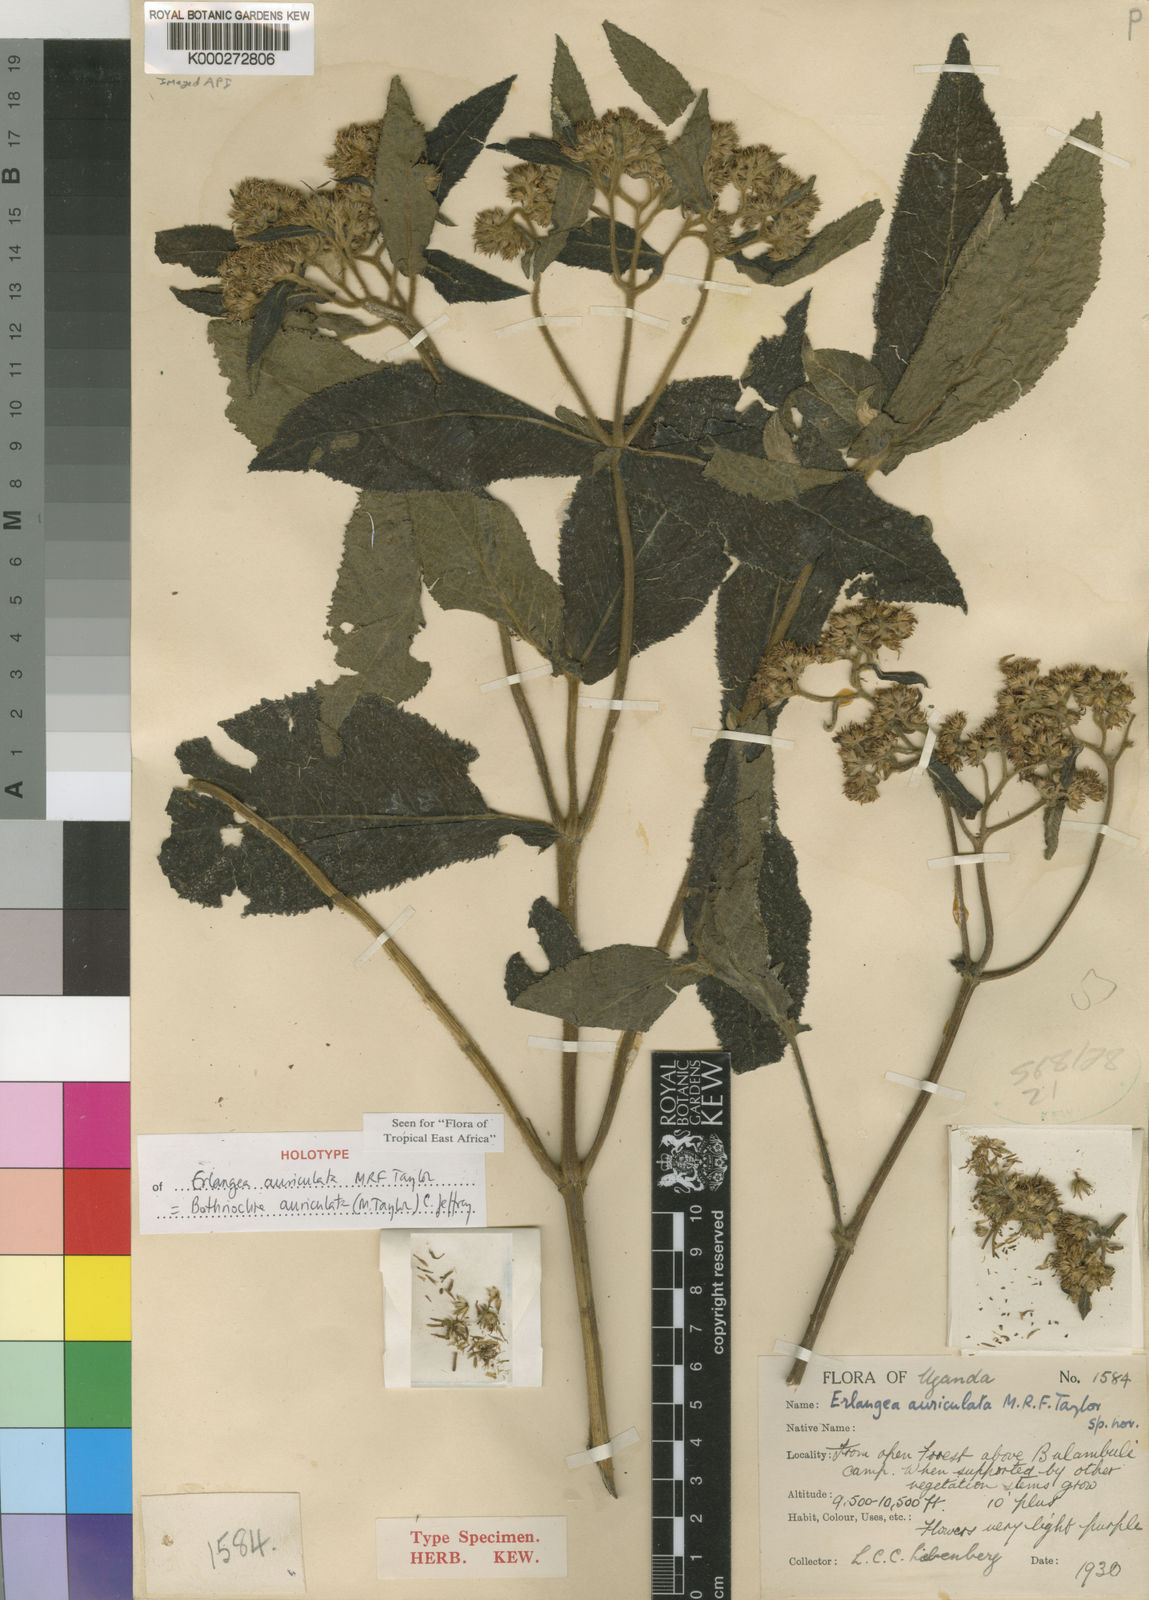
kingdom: Plantae
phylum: Tracheophyta
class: Magnoliopsida
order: Asterales
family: Asteraceae
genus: Bothriocline
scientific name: Bothriocline auriculata
